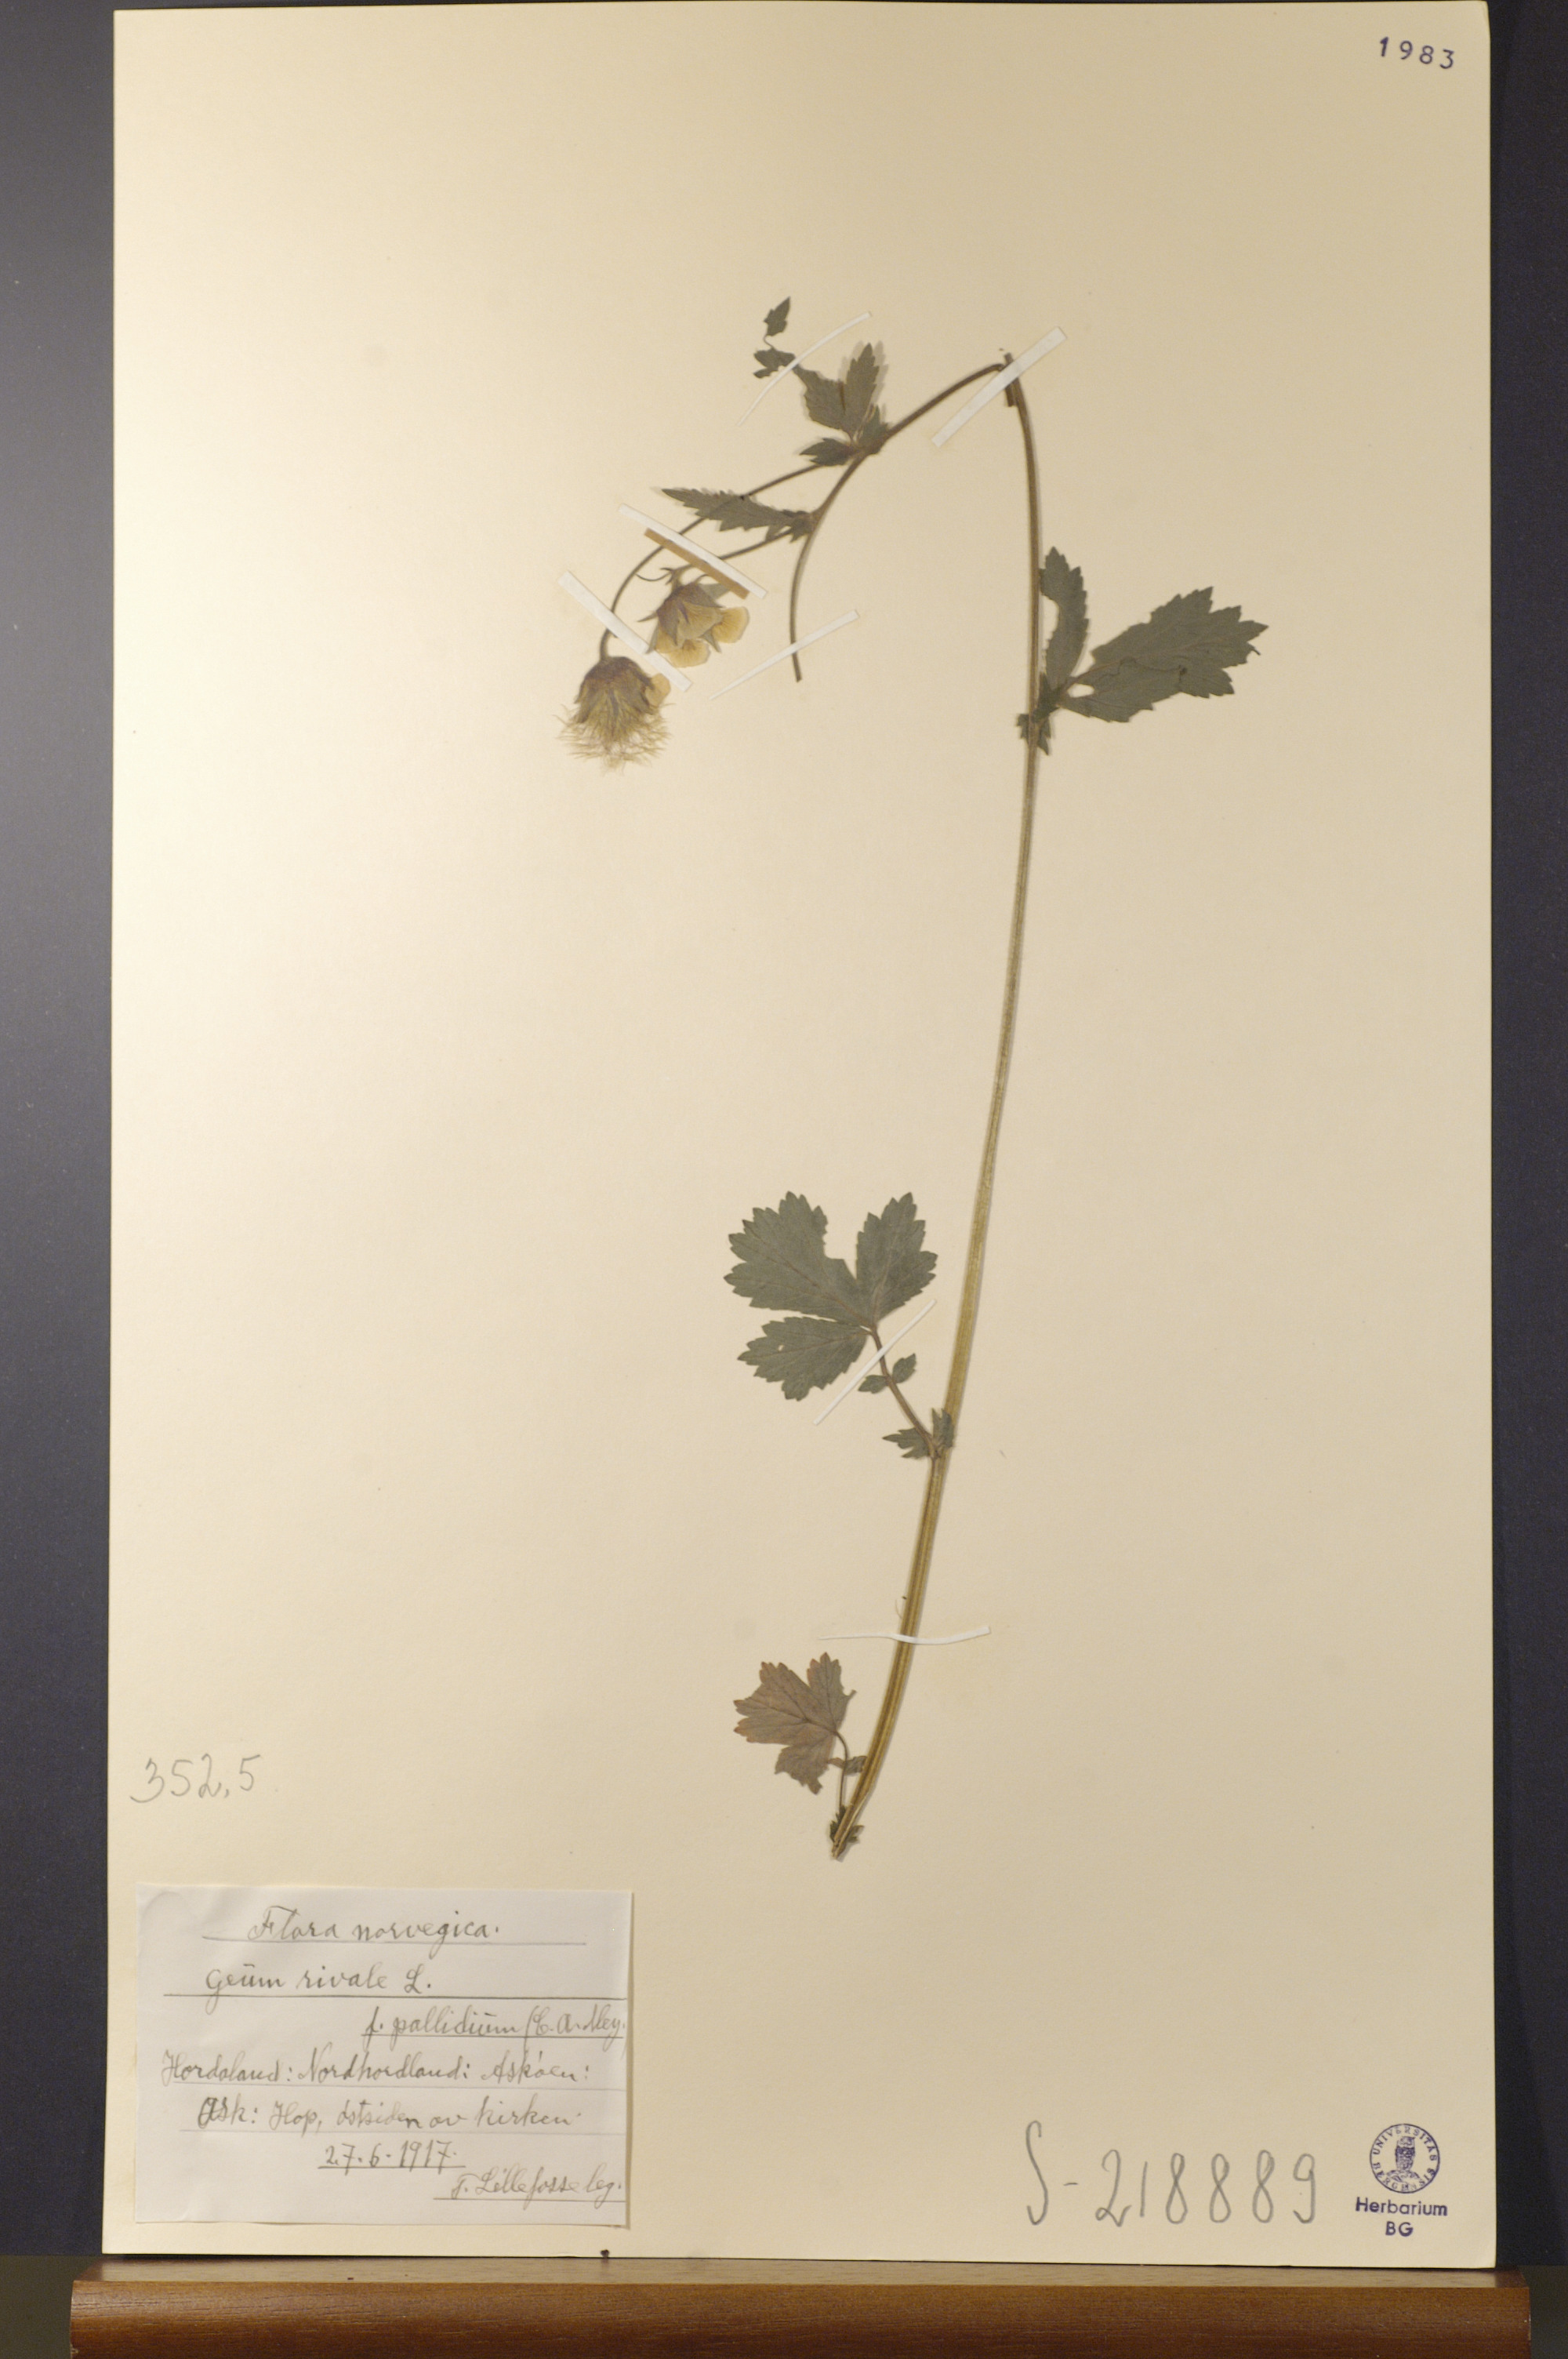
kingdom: Plantae
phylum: Tracheophyta
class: Magnoliopsida
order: Rosales
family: Rosaceae
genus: Geum
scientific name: Geum rivale
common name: Water avens
